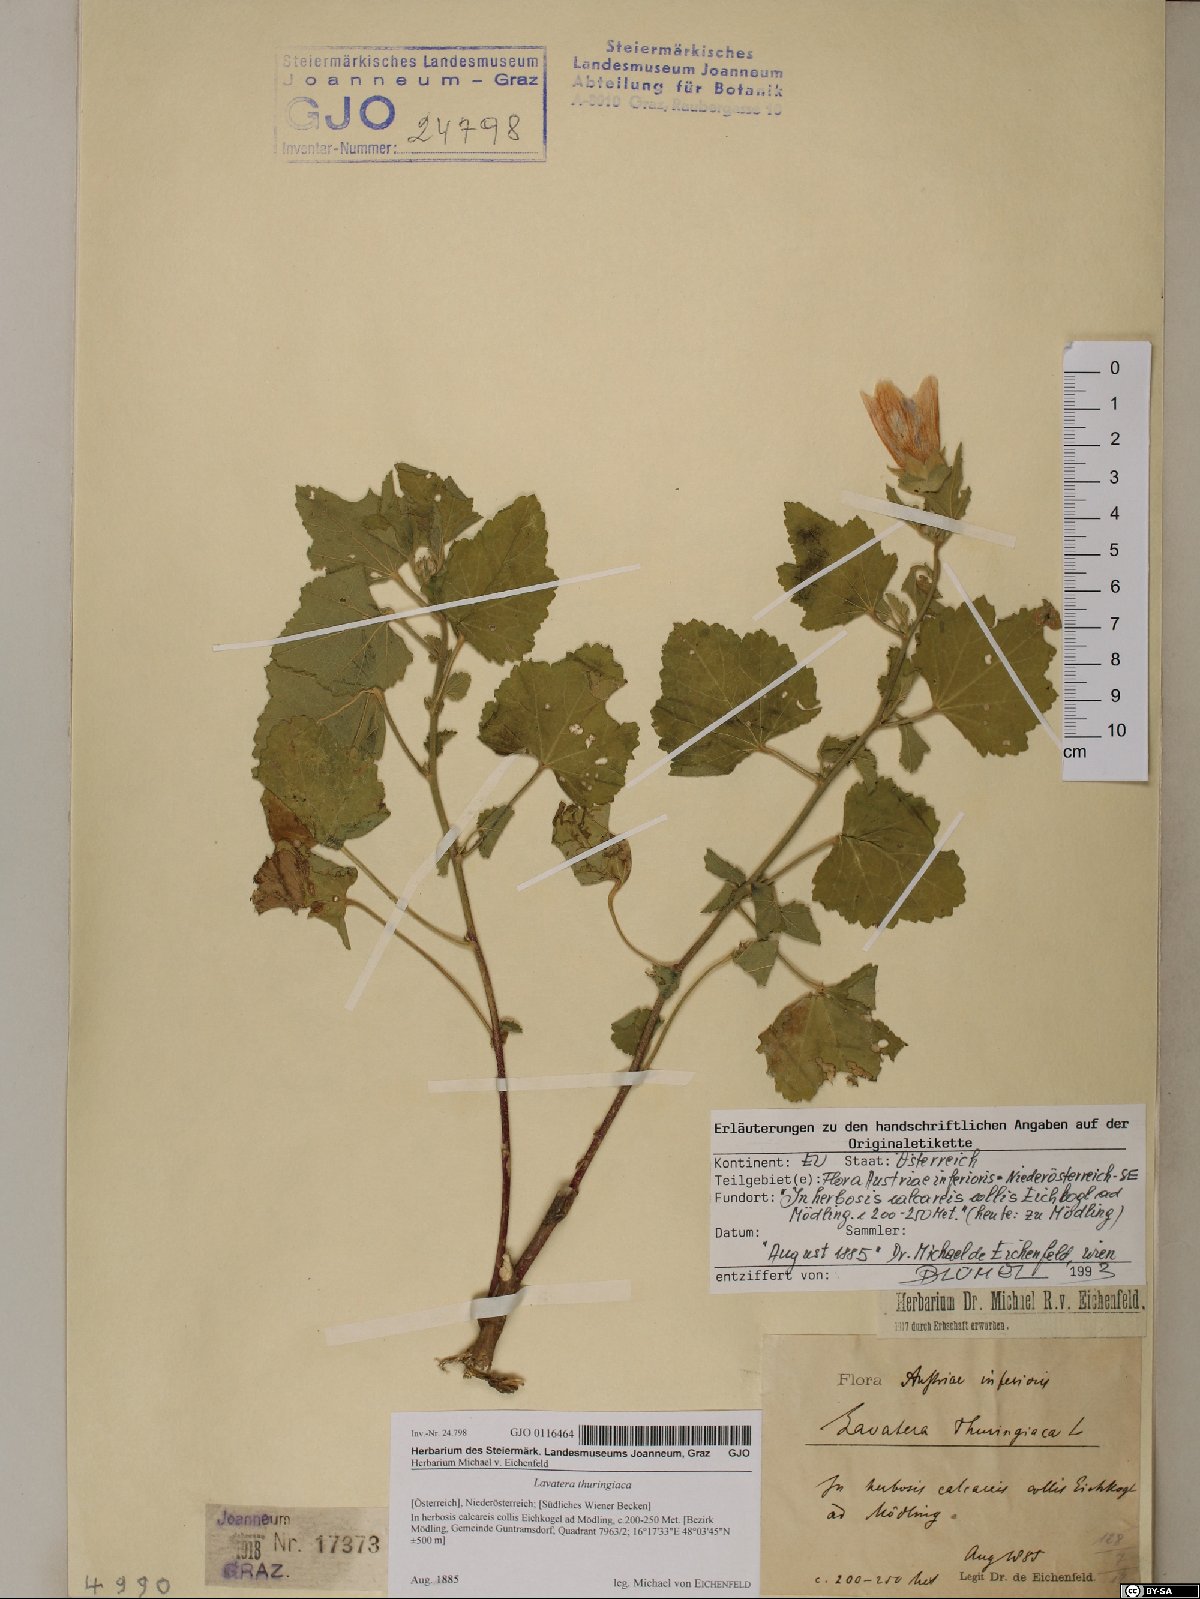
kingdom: Plantae
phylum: Tracheophyta
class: Magnoliopsida
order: Malvales
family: Malvaceae
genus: Malva
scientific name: Malva thuringiaca
